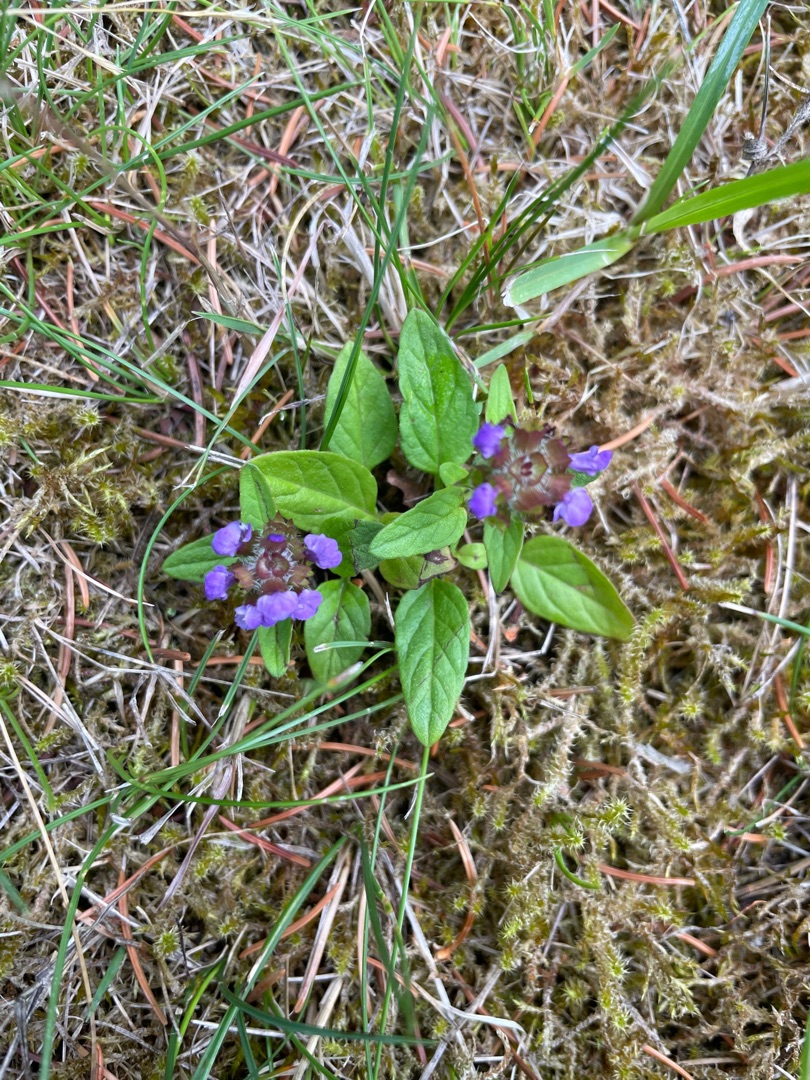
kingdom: Plantae
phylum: Tracheophyta
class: Magnoliopsida
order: Lamiales
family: Lamiaceae
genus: Prunella
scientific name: Prunella vulgaris
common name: Almindelig brunelle
